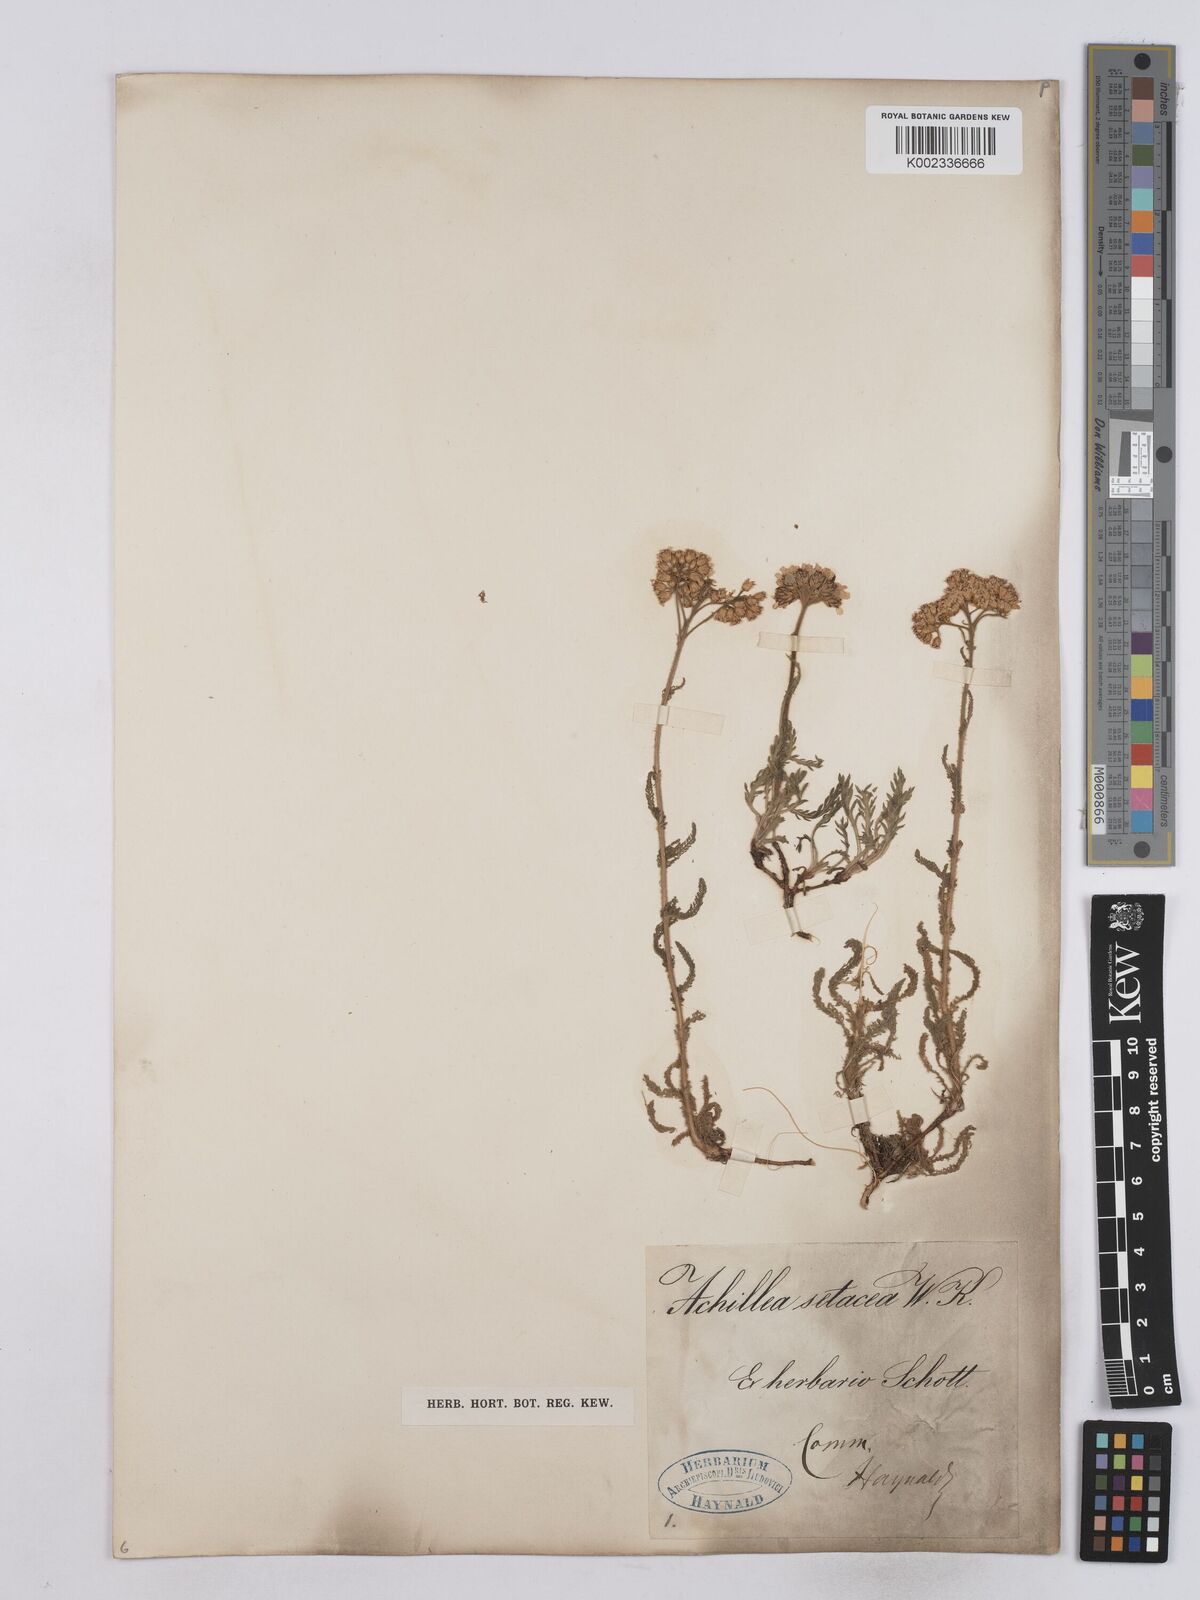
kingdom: Plantae
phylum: Tracheophyta
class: Magnoliopsida
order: Asterales
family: Asteraceae
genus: Achillea
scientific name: Achillea setacea
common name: Bristly yarrow
